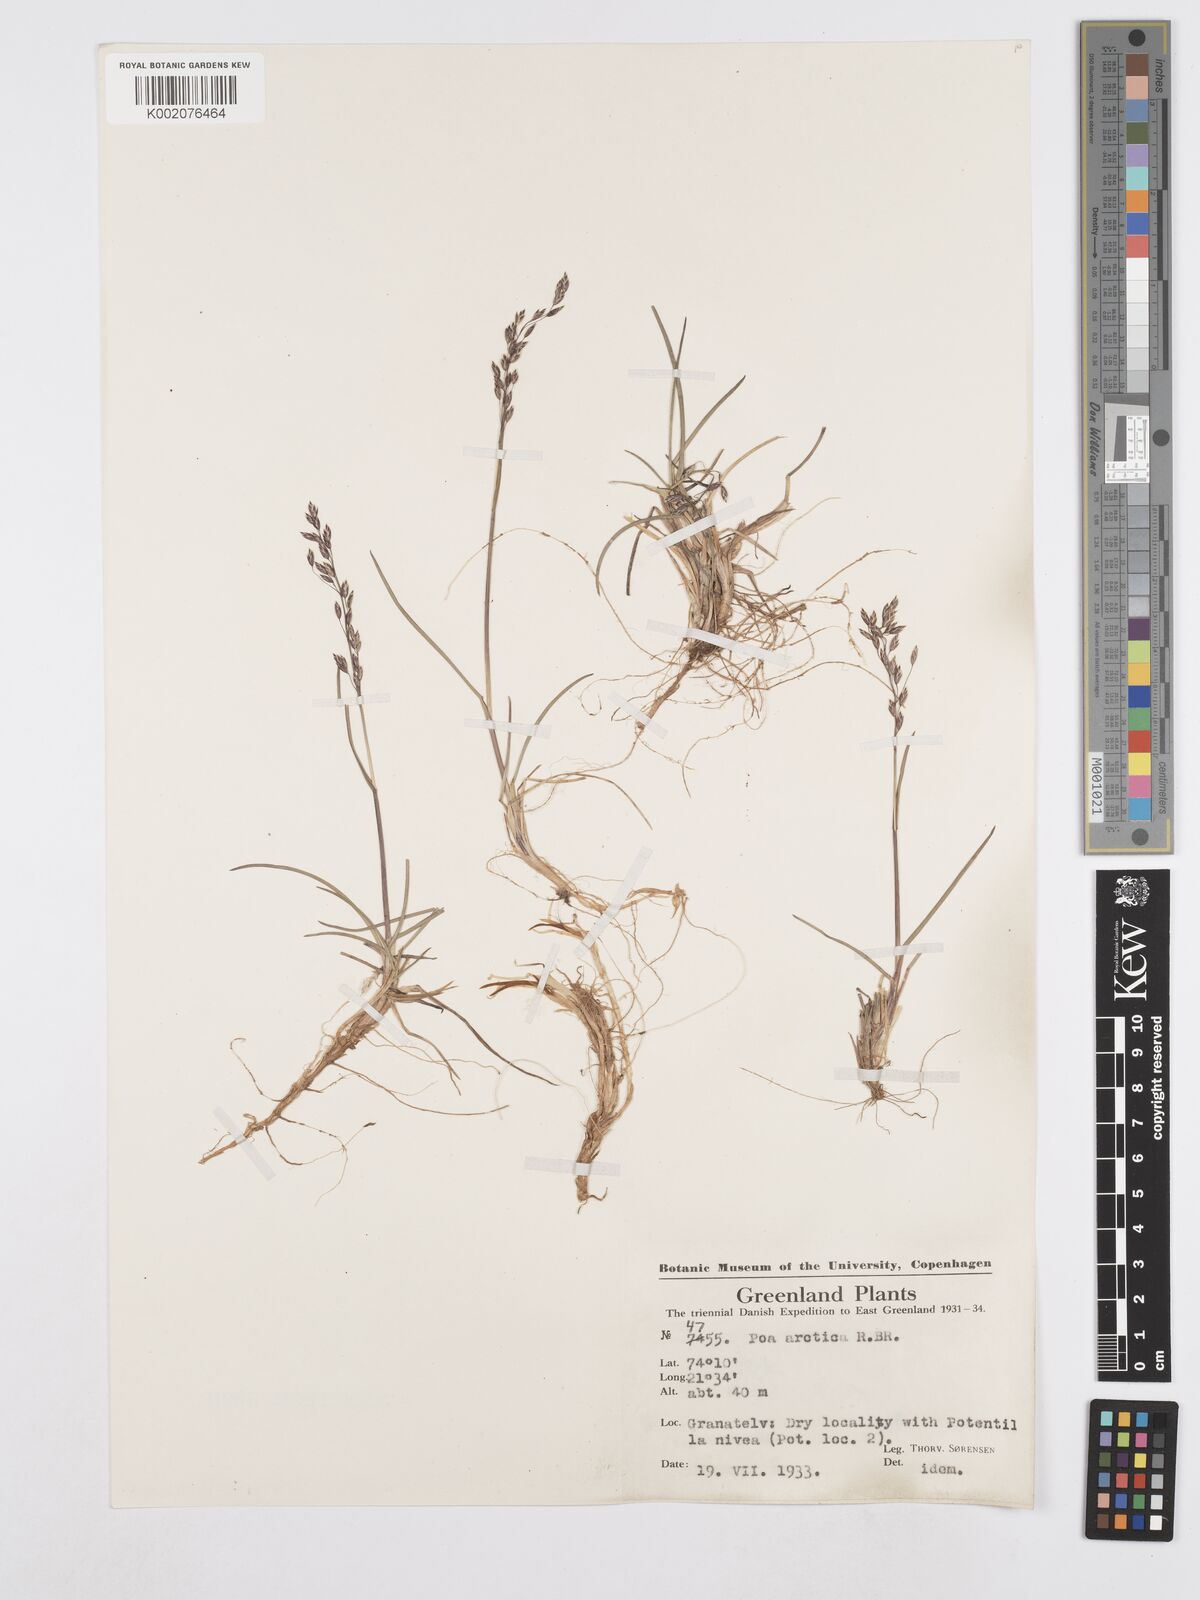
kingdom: Plantae
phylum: Tracheophyta
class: Liliopsida
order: Poales
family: Poaceae
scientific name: Poaceae
